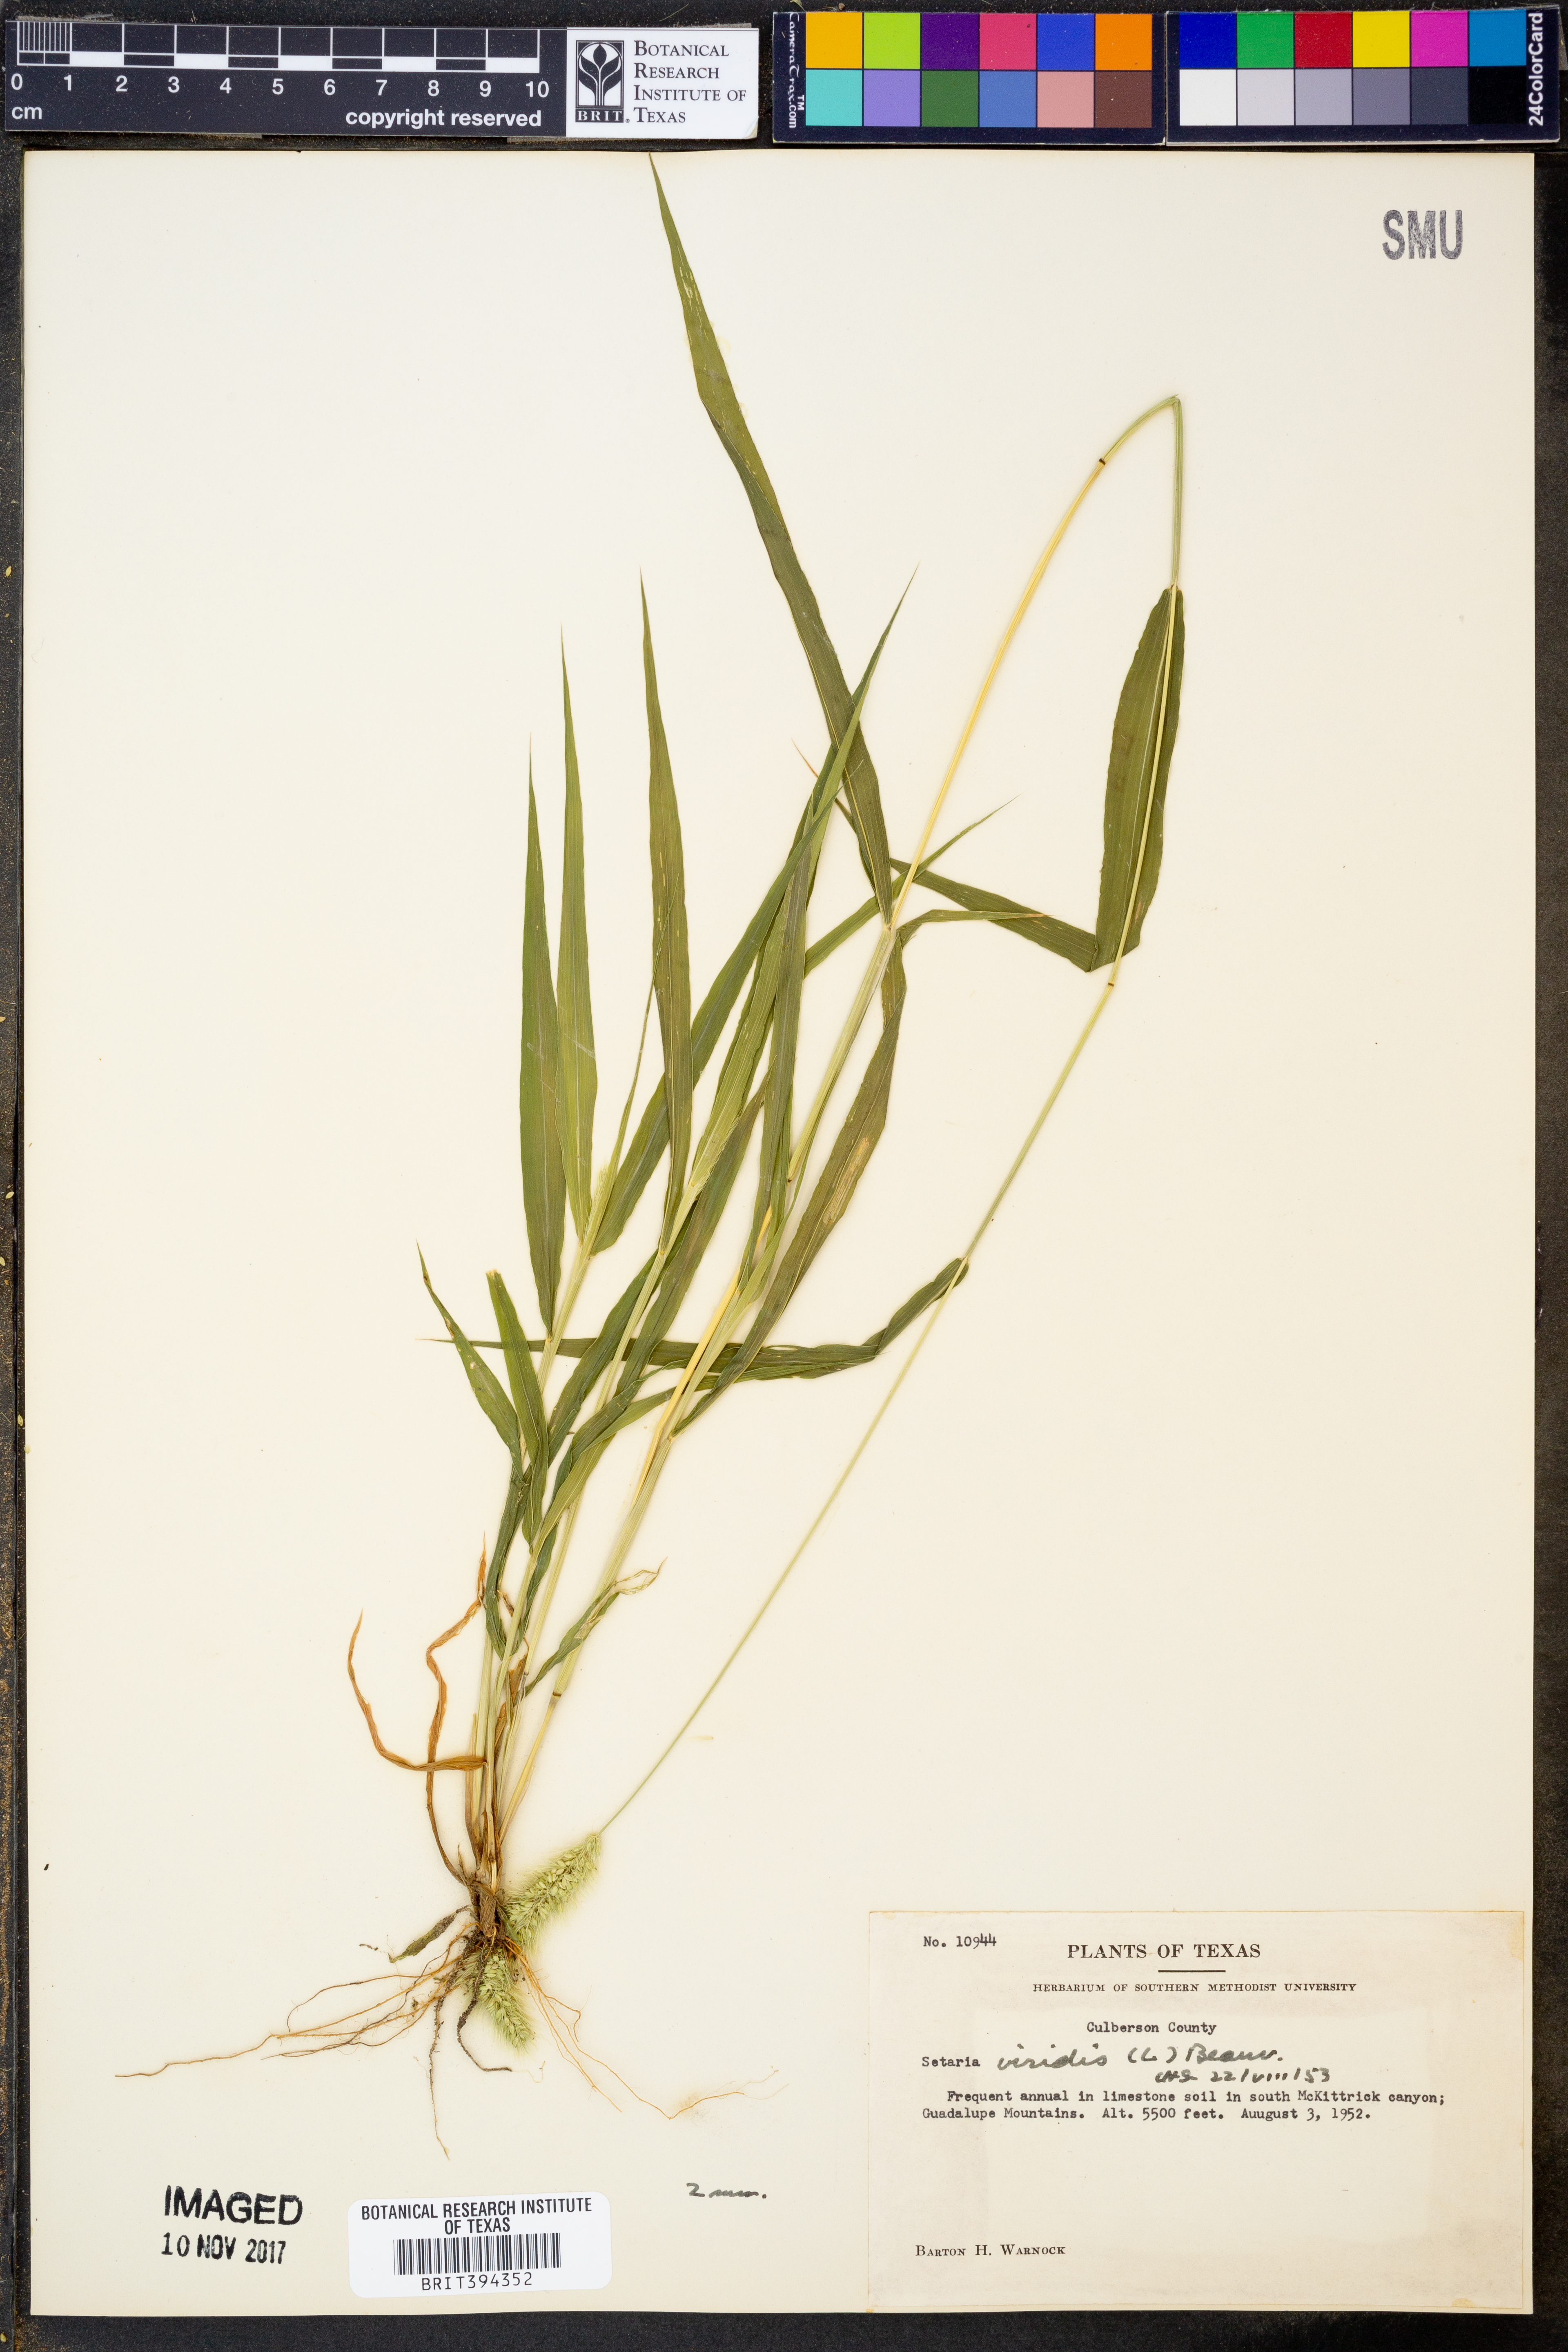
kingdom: Plantae
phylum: Tracheophyta
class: Liliopsida
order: Poales
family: Poaceae
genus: Setaria
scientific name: Setaria viridis
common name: Green bristlegrass
